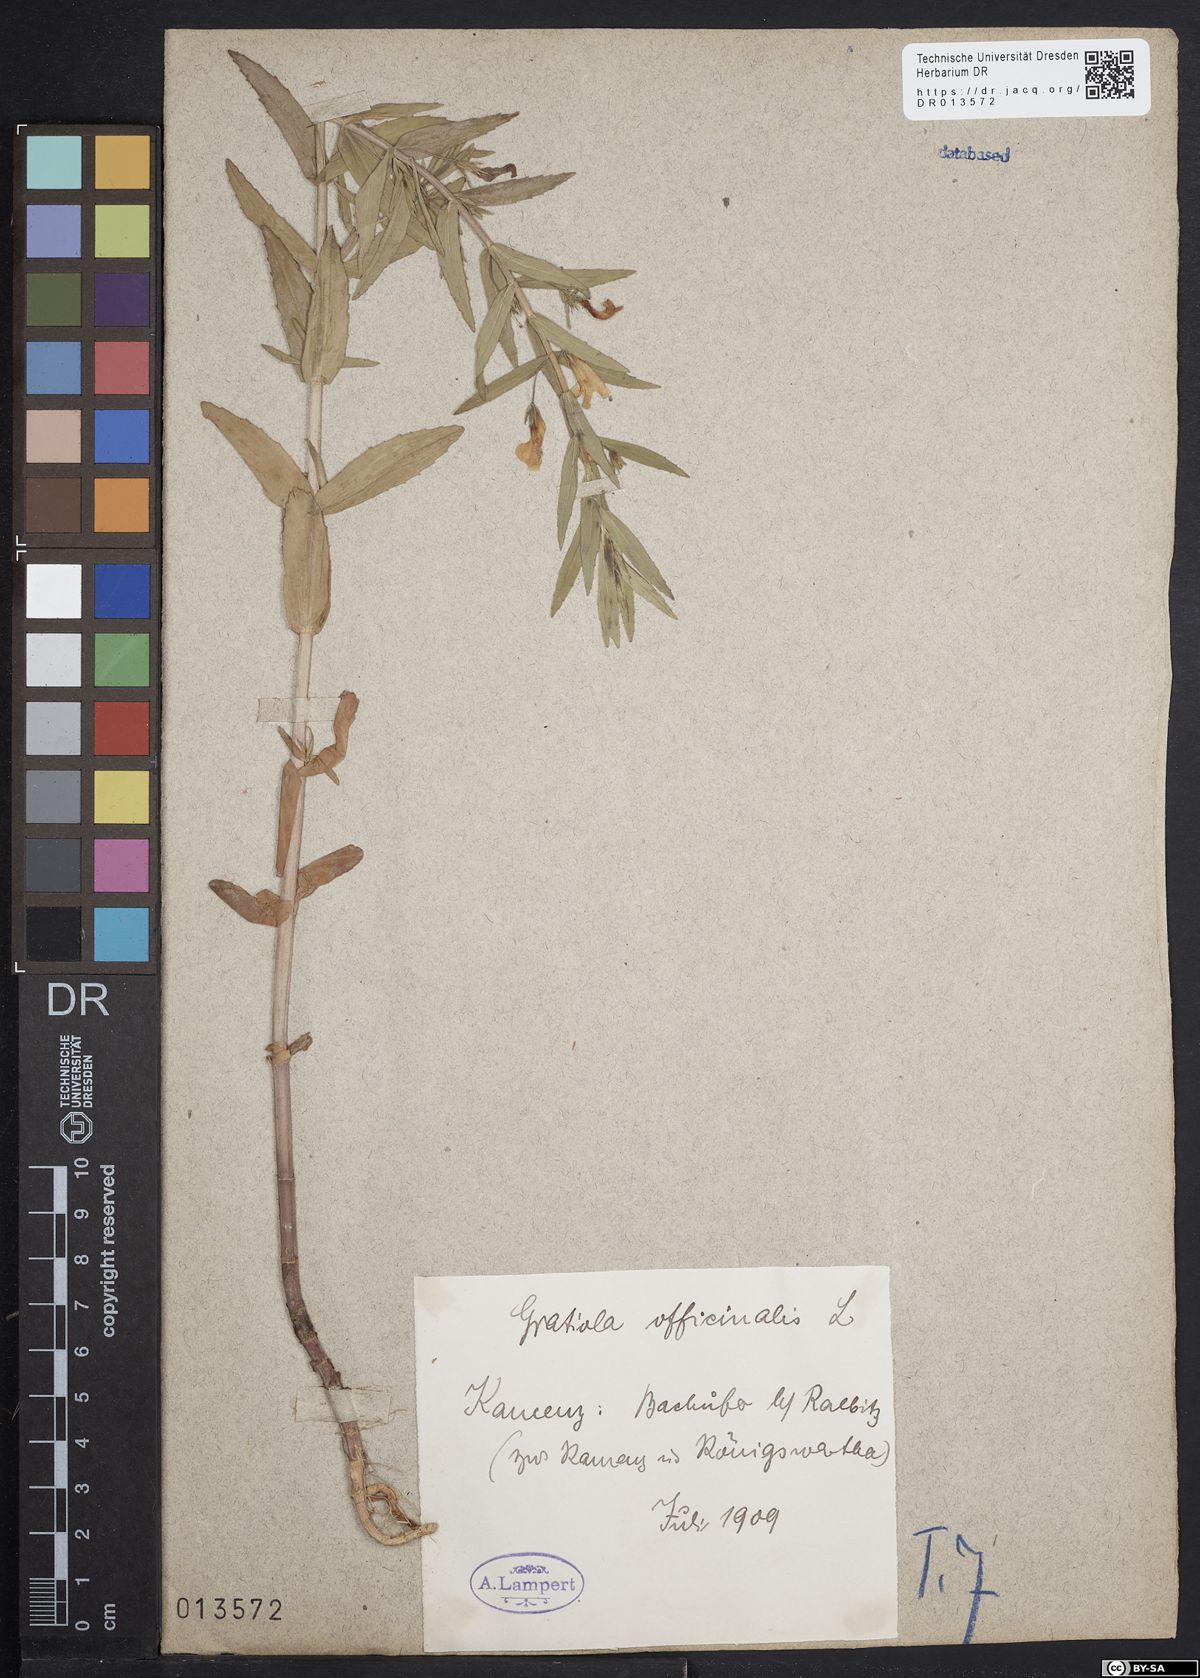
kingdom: Plantae
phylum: Tracheophyta
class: Magnoliopsida
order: Lamiales
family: Plantaginaceae
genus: Gratiola
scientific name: Gratiola officinalis
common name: Gratiola
